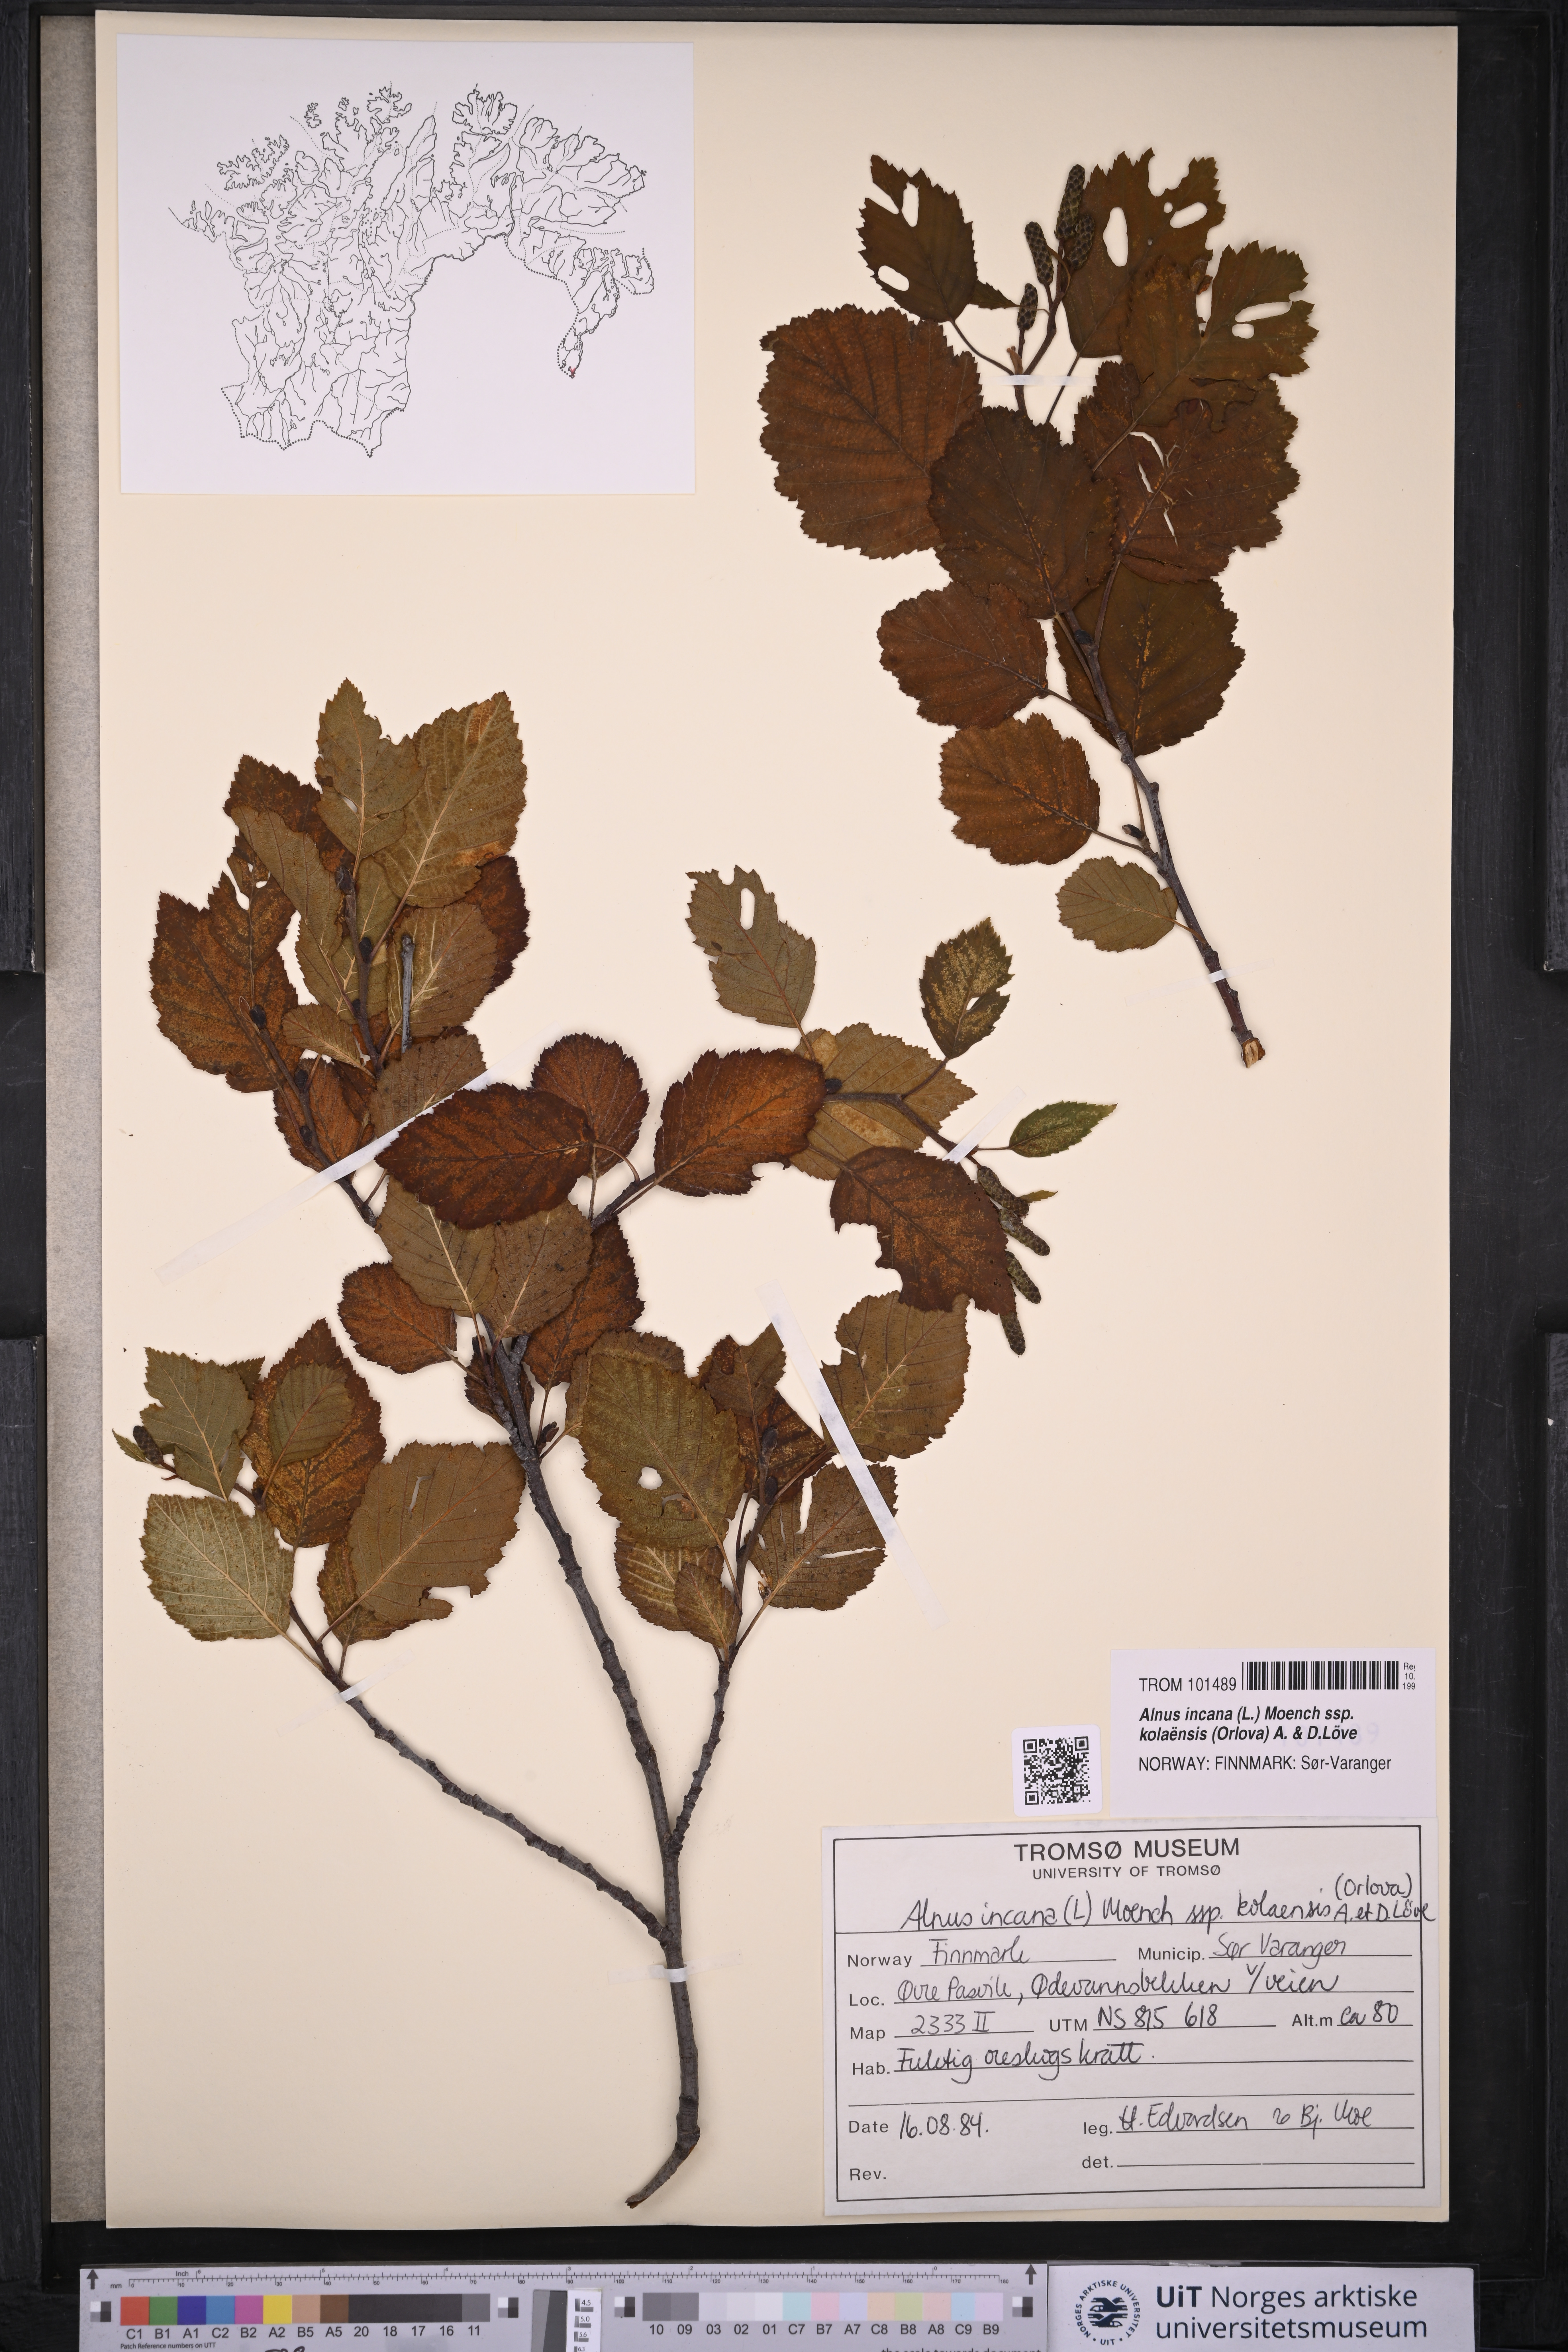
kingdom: Plantae
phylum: Tracheophyta
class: Magnoliopsida
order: Fagales
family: Betulaceae
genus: Alnus
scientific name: Alnus incana
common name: Grey alder
